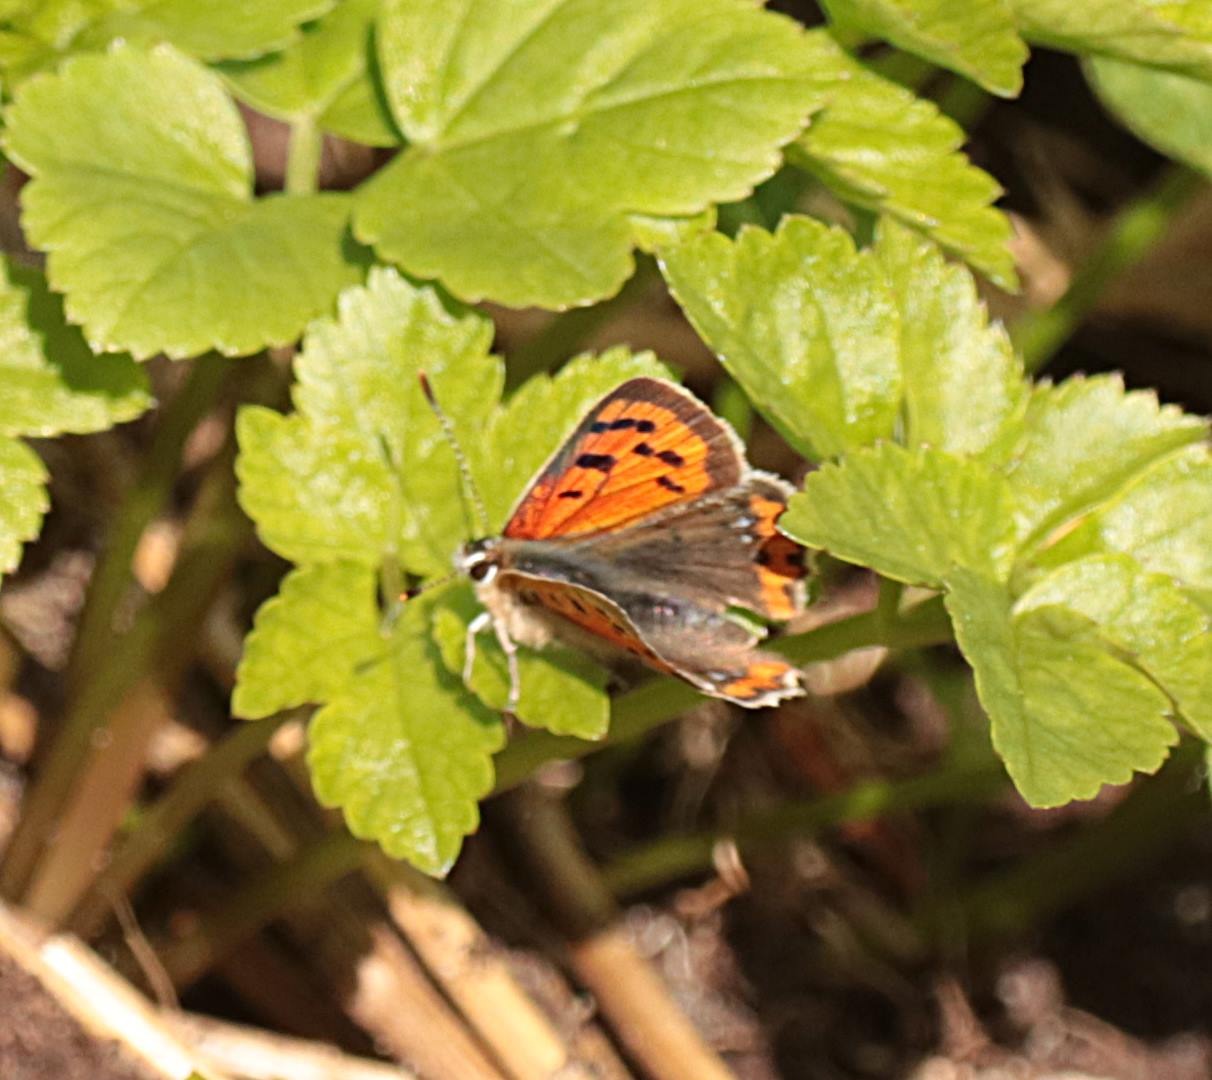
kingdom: Animalia
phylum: Arthropoda
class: Insecta
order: Lepidoptera
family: Lycaenidae
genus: Lycaena
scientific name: Lycaena phlaeas
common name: Lille ildfugl
